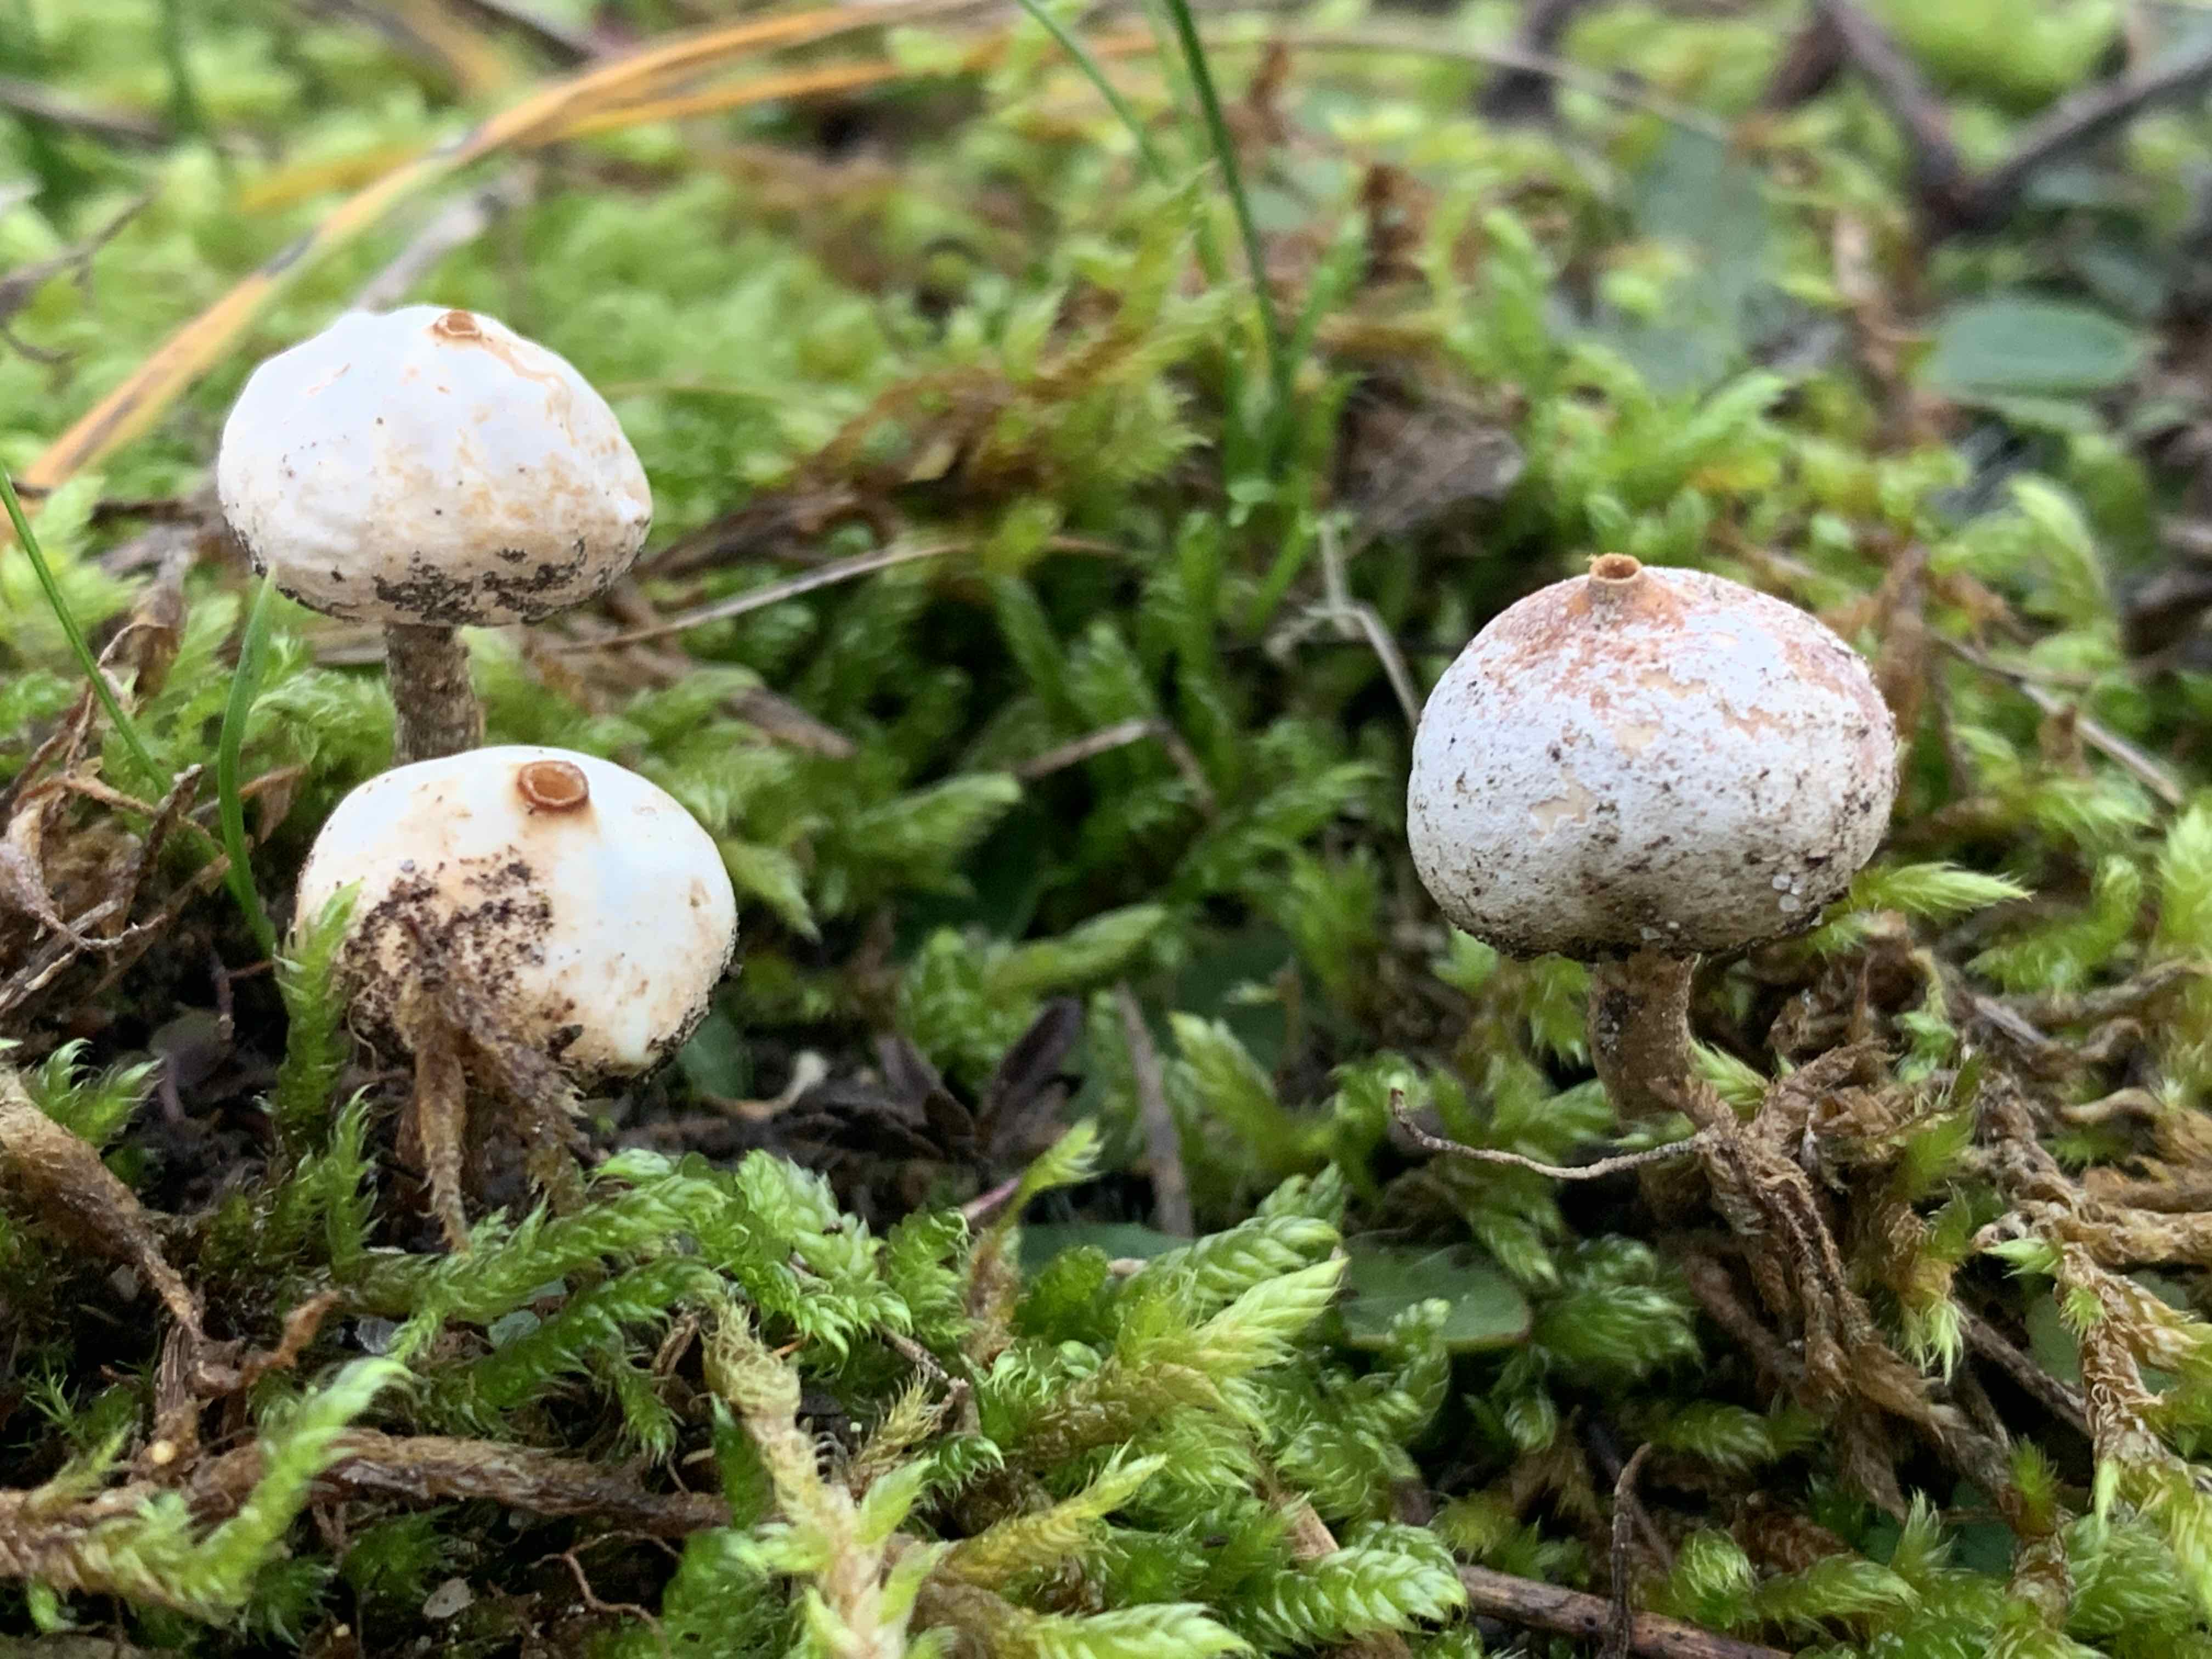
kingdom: Fungi
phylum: Basidiomycota
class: Agaricomycetes
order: Agaricales
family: Agaricaceae
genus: Tulostoma
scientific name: Tulostoma brumale
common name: vinter-stilkbovist
